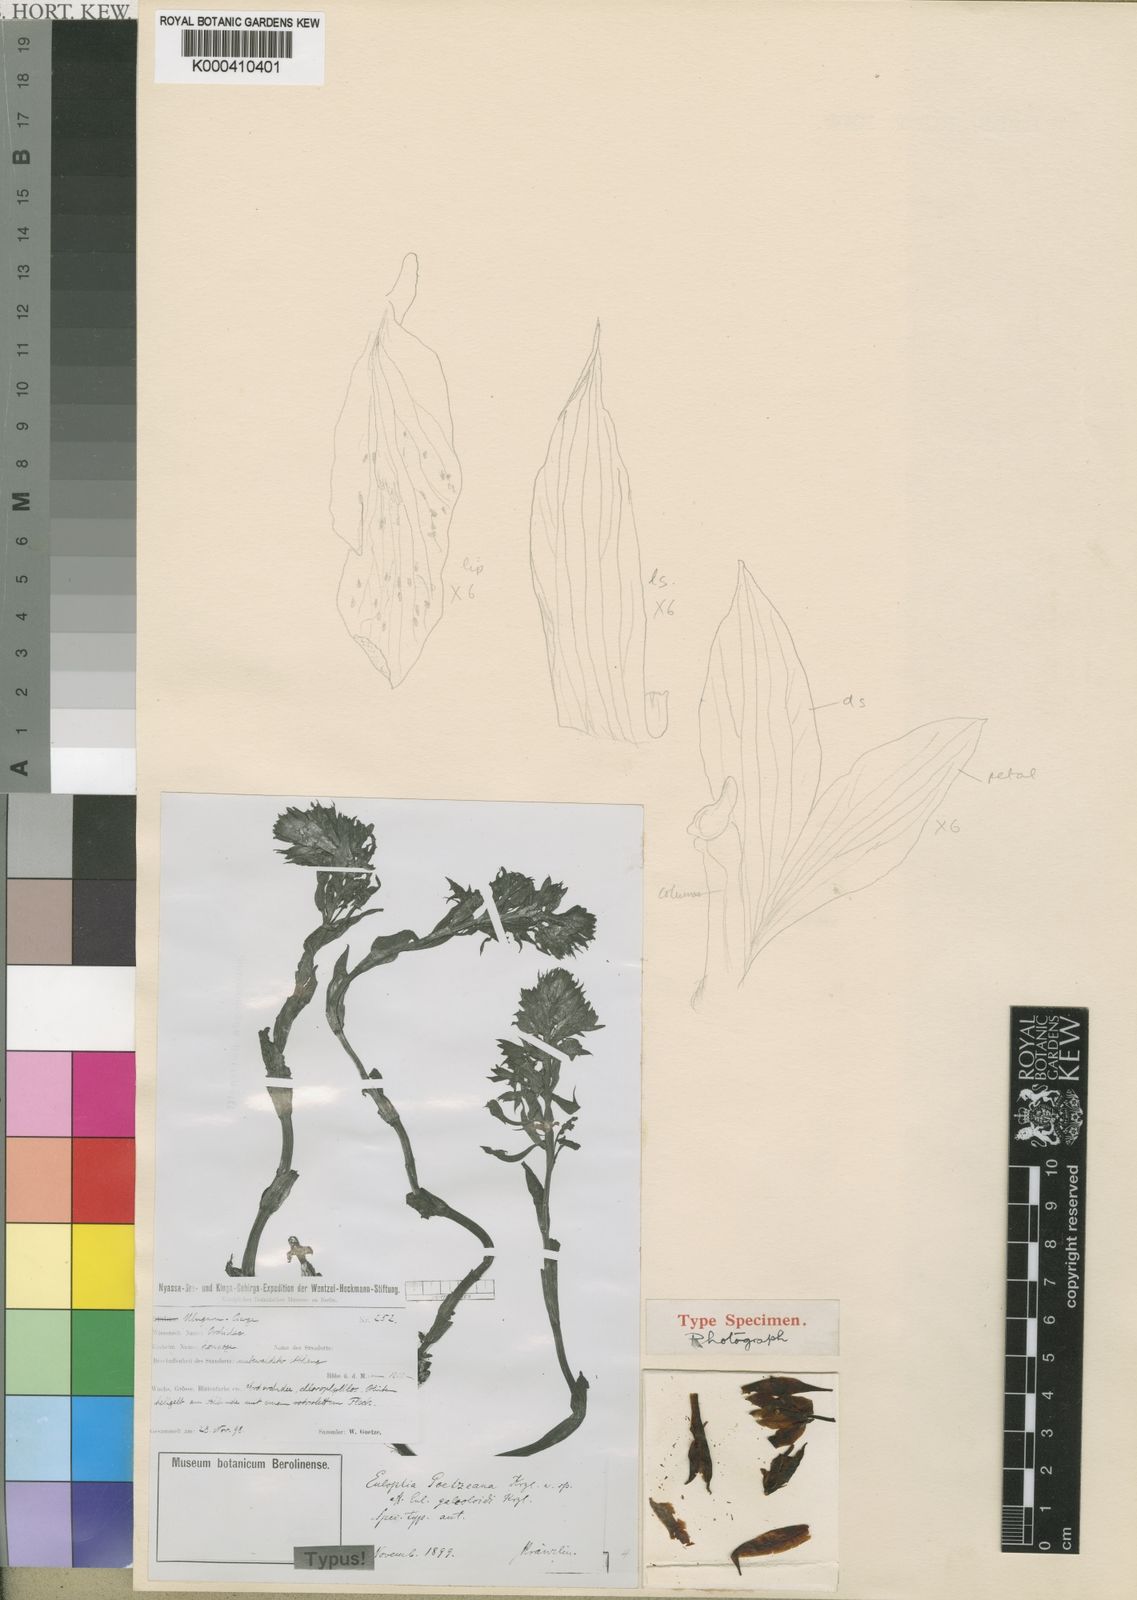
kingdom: Plantae
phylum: Tracheophyta
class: Liliopsida
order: Asparagales
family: Orchidaceae
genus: Eulophia
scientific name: Eulophia galeoloides
